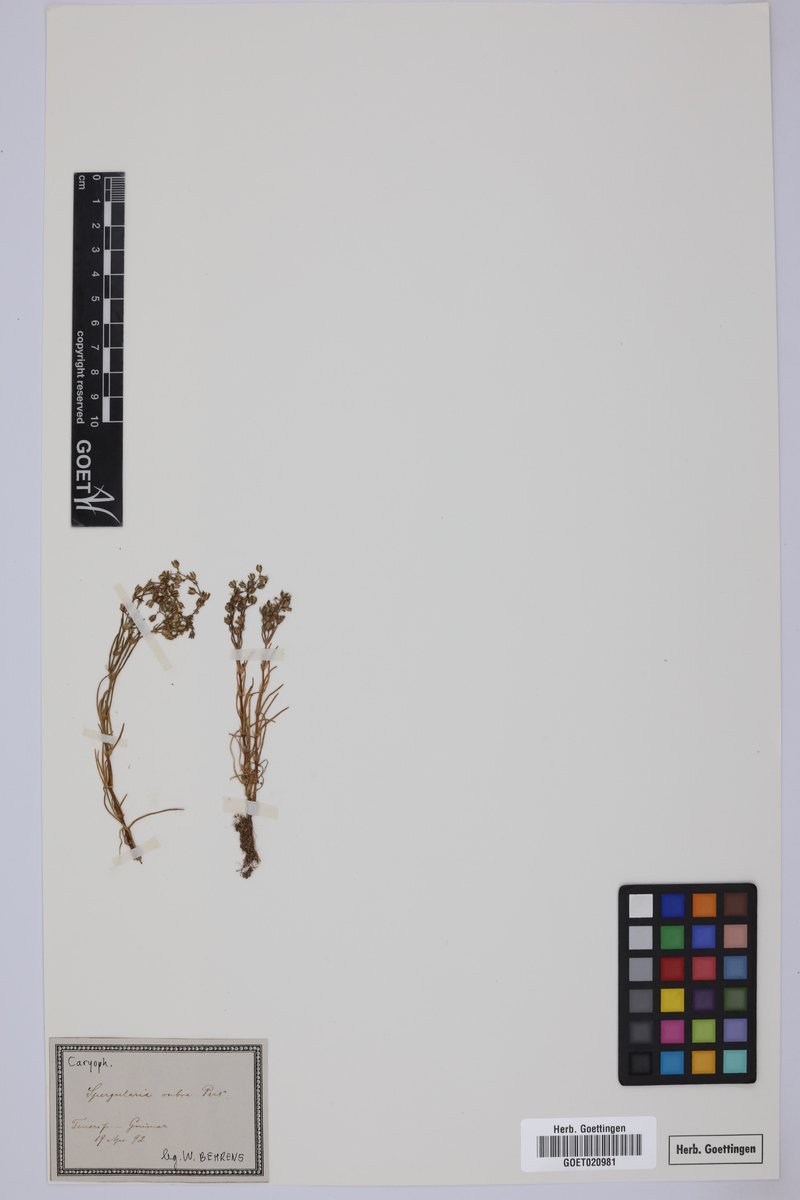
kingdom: Plantae
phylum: Tracheophyta
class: Magnoliopsida
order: Caryophyllales
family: Caryophyllaceae
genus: Spergularia
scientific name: Spergularia rubra
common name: Red sand-spurrey
